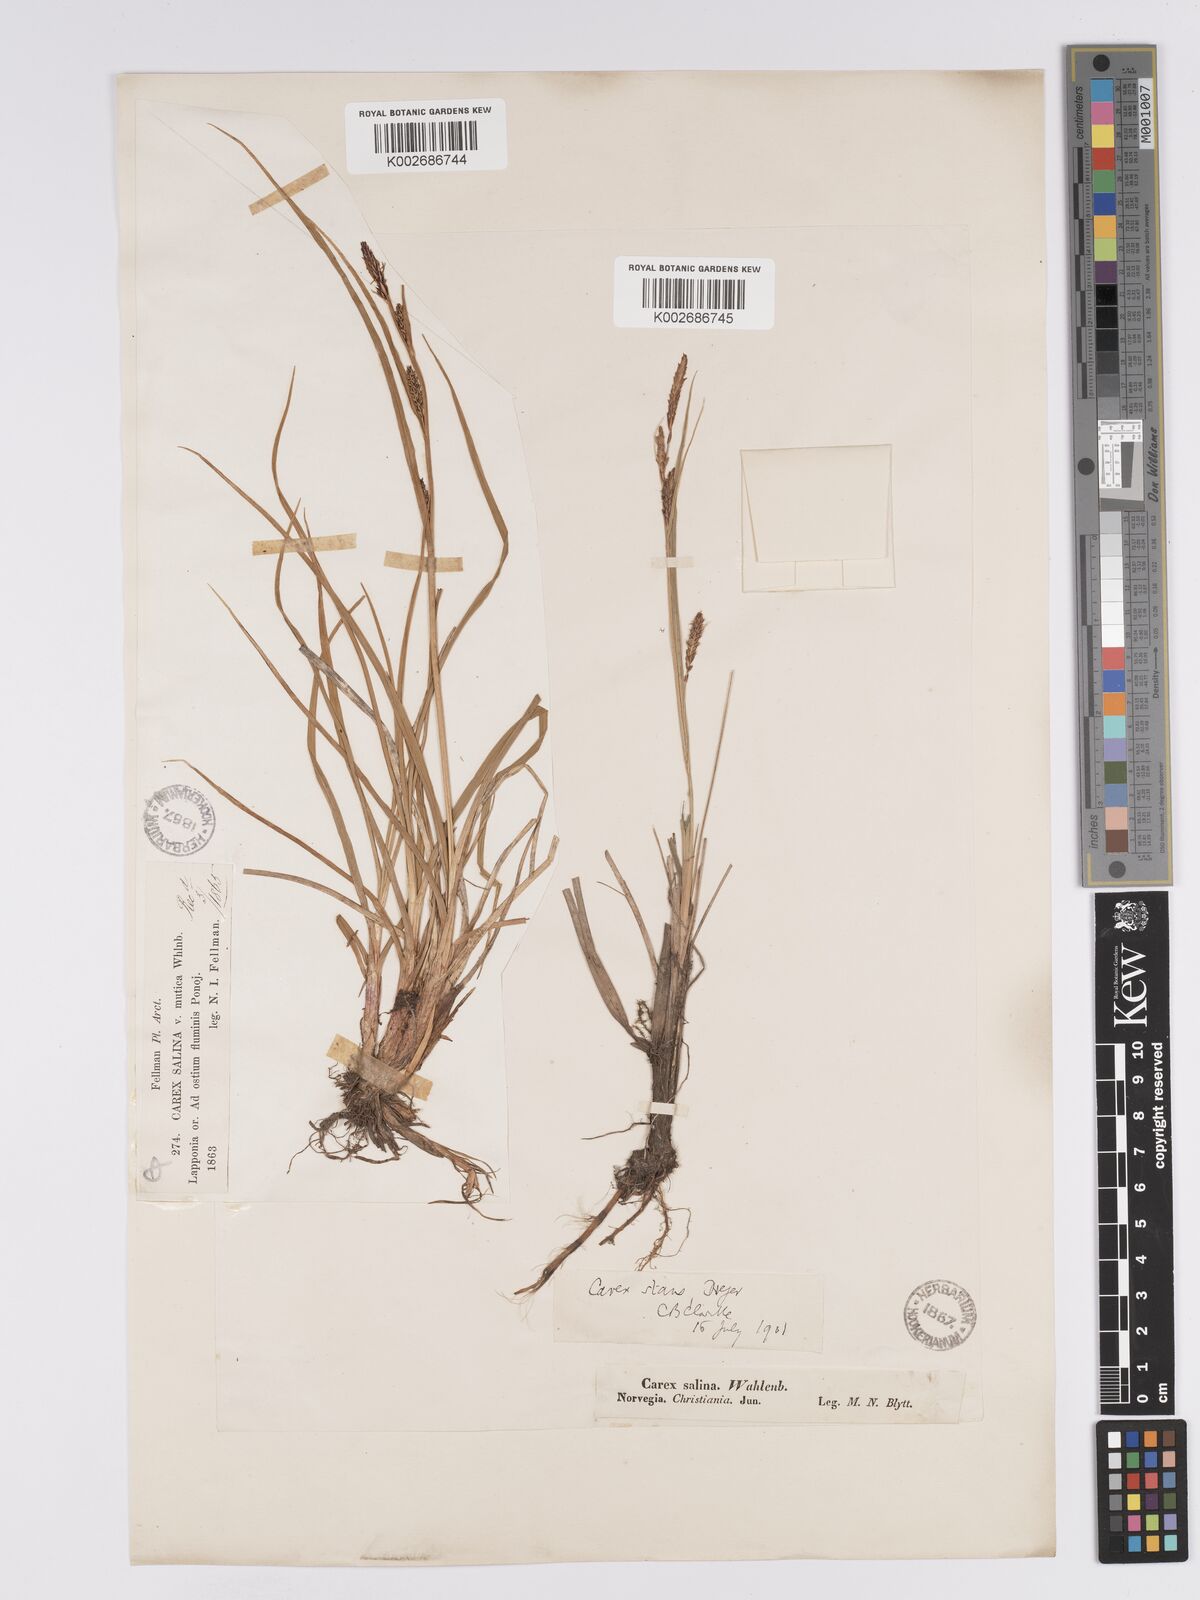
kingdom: Plantae
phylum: Tracheophyta
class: Liliopsida
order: Poales
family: Cyperaceae
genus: Carex
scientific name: Carex aquatilis
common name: Water sedge
